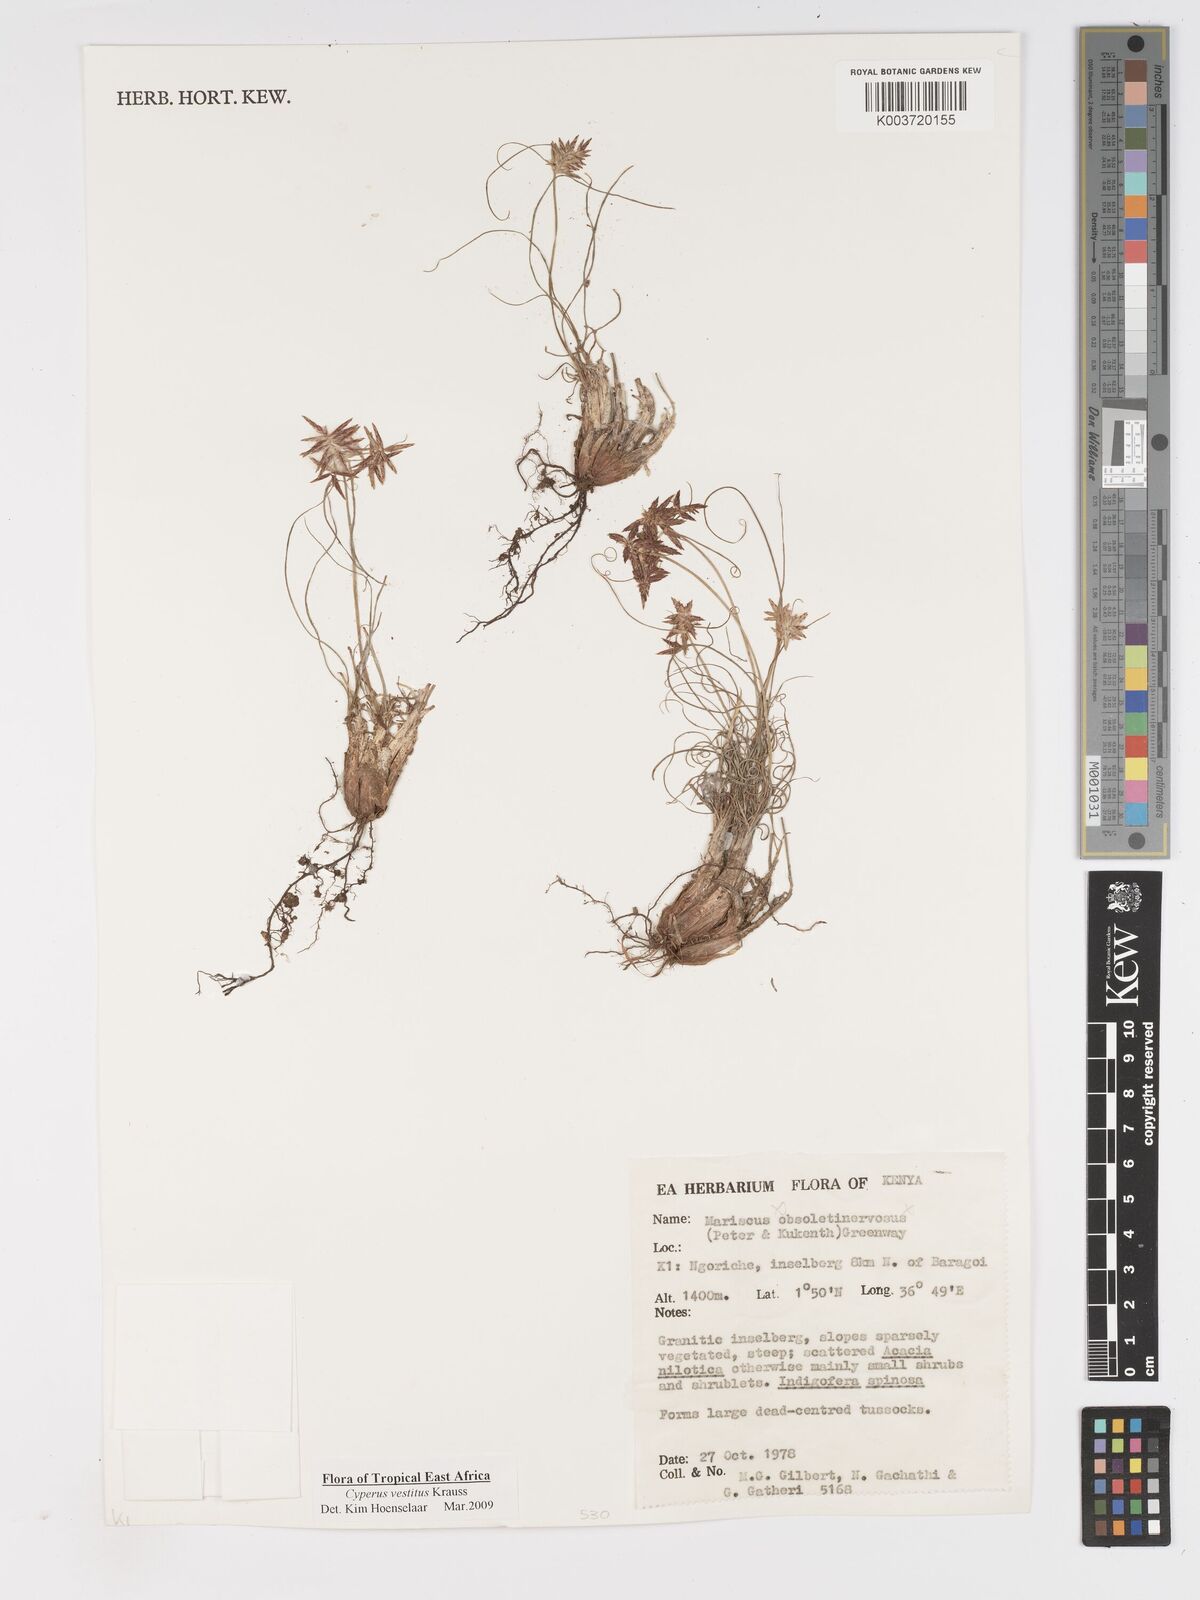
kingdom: Plantae
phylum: Tracheophyta
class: Liliopsida
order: Poales
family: Cyperaceae
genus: Cyperus
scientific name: Cyperus vestitus
